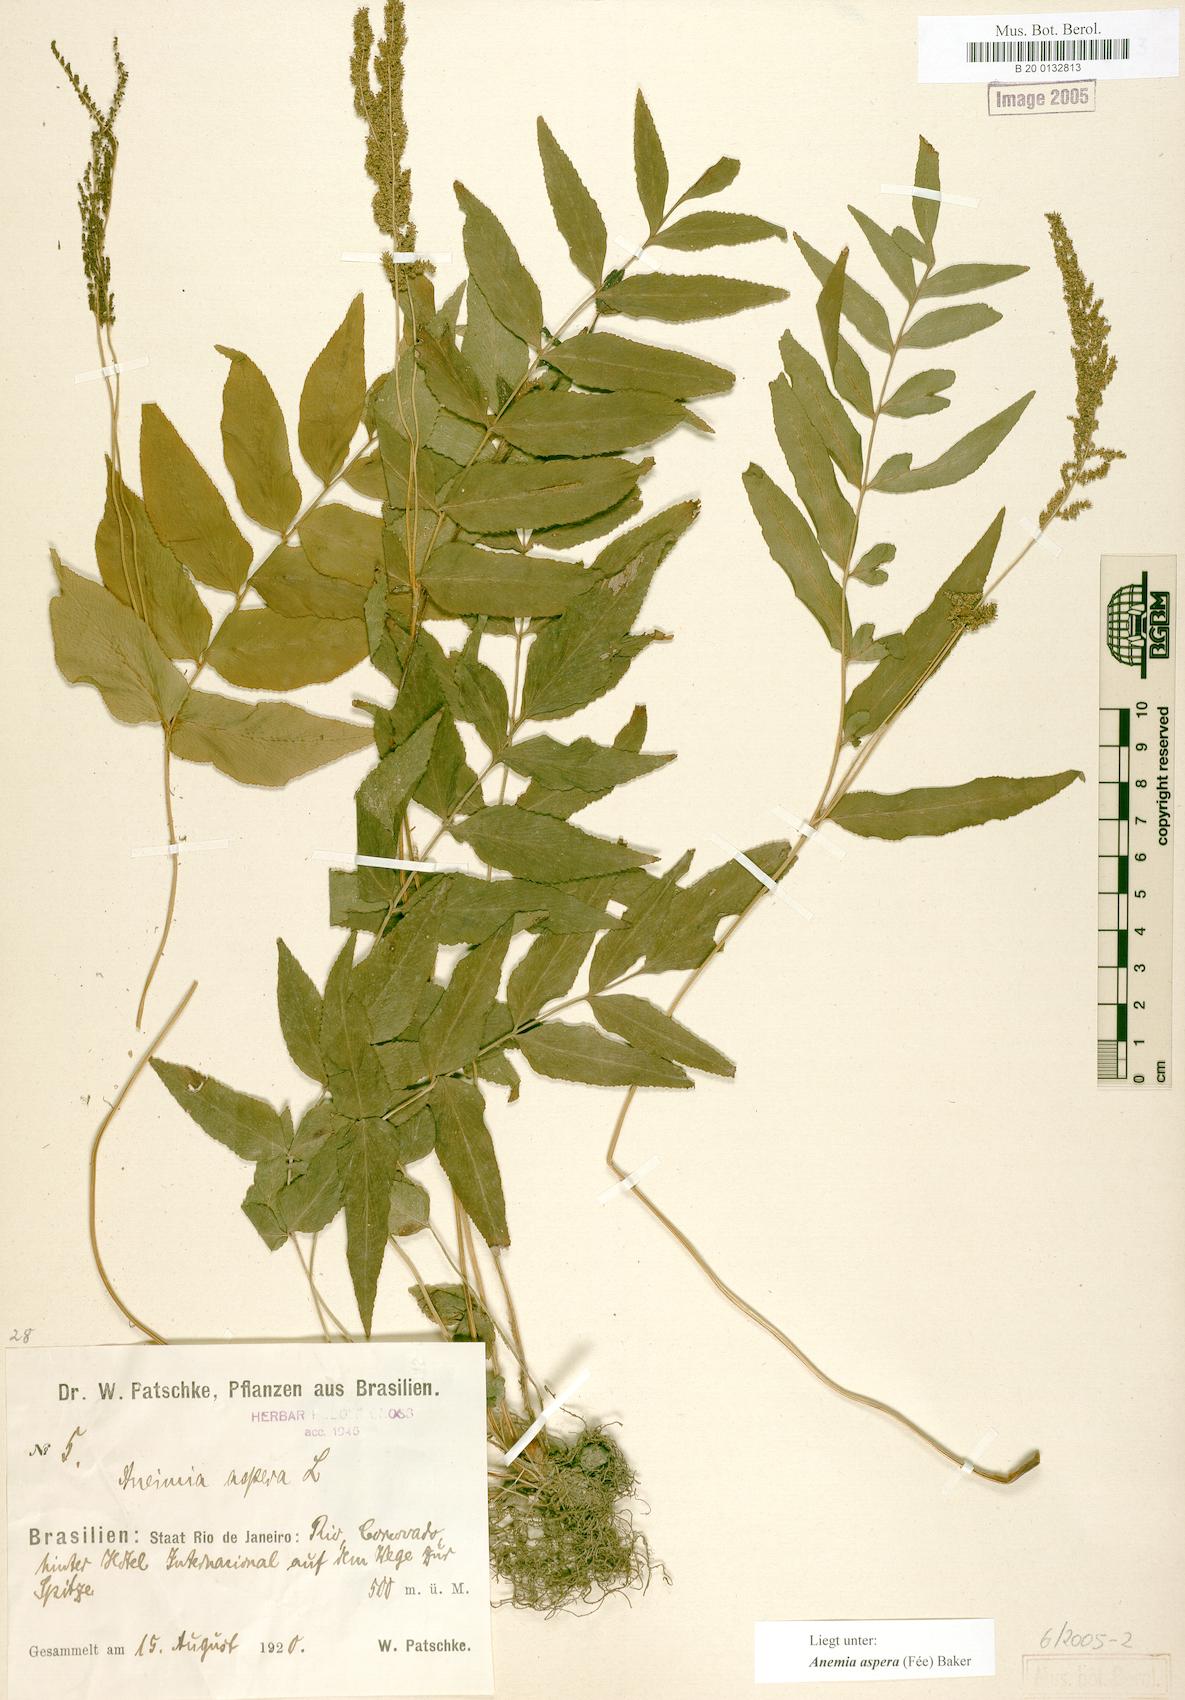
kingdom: Plantae
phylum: Tracheophyta
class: Polypodiopsida
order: Schizaeales
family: Anemiaceae
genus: Anemia
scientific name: Anemia aspera
